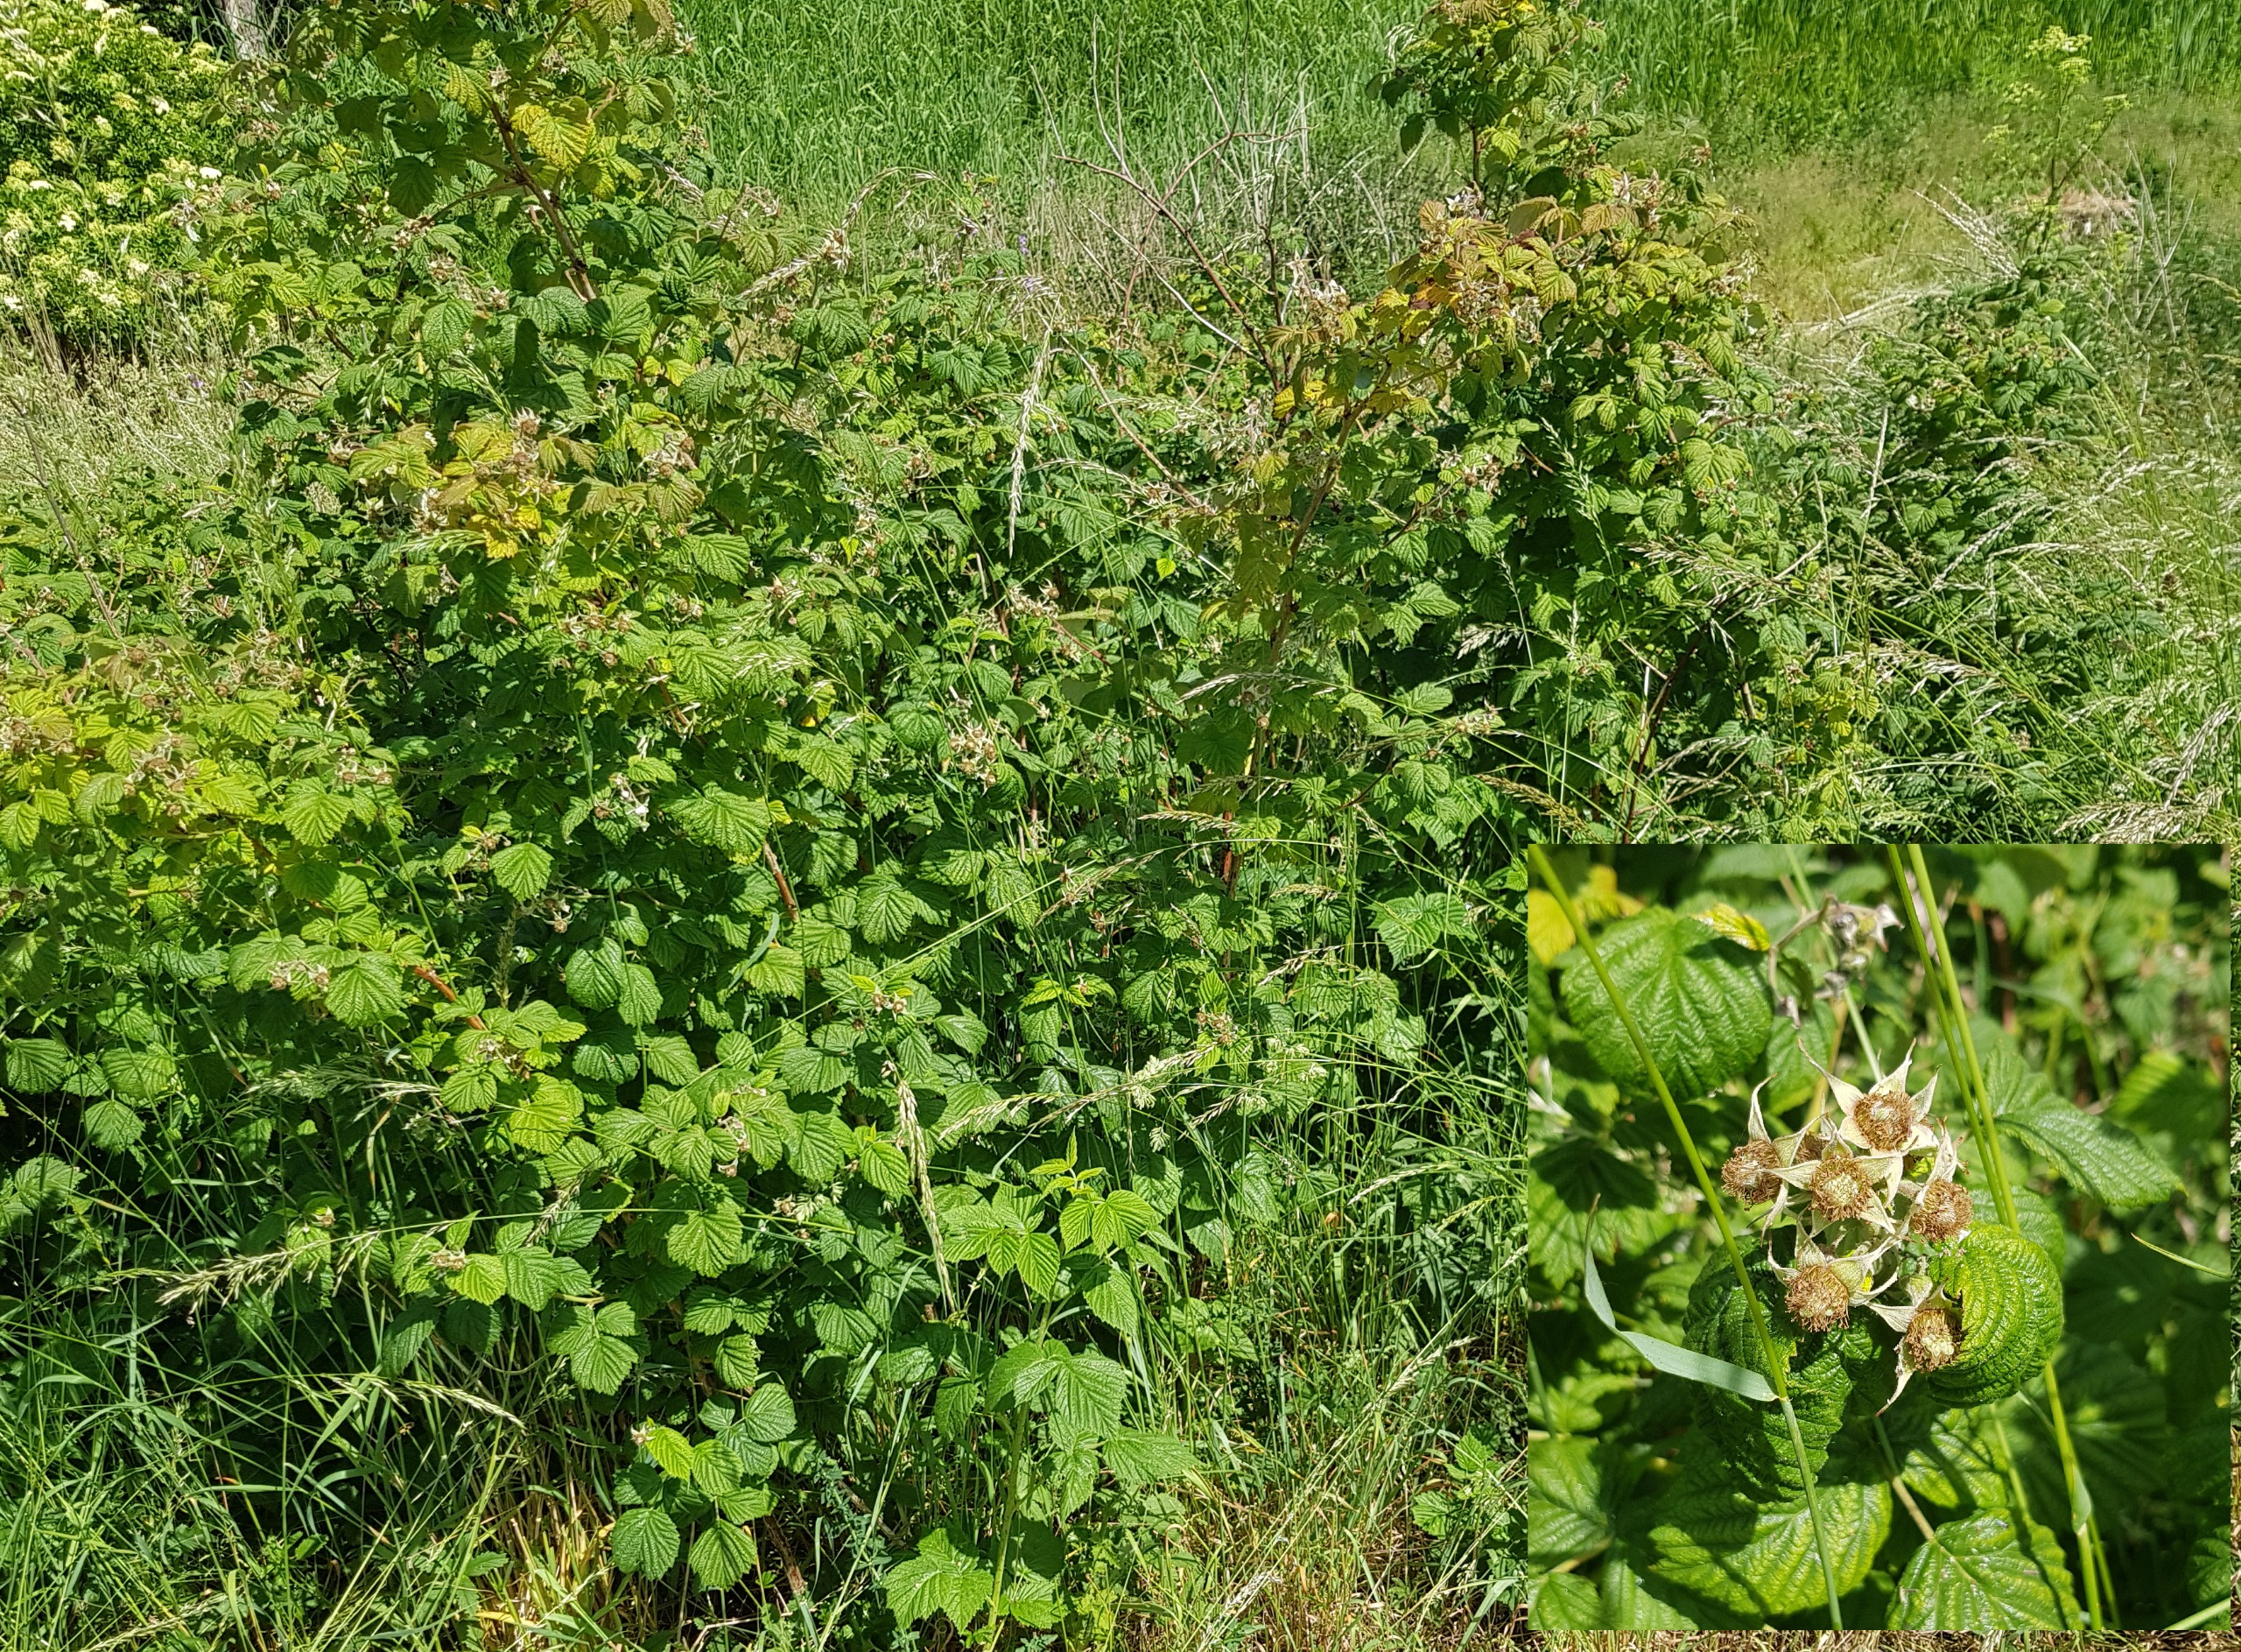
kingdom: Plantae
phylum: Tracheophyta
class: Magnoliopsida
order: Rosales
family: Rosaceae
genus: Rubus
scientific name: Rubus idaeus
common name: Hindbær
